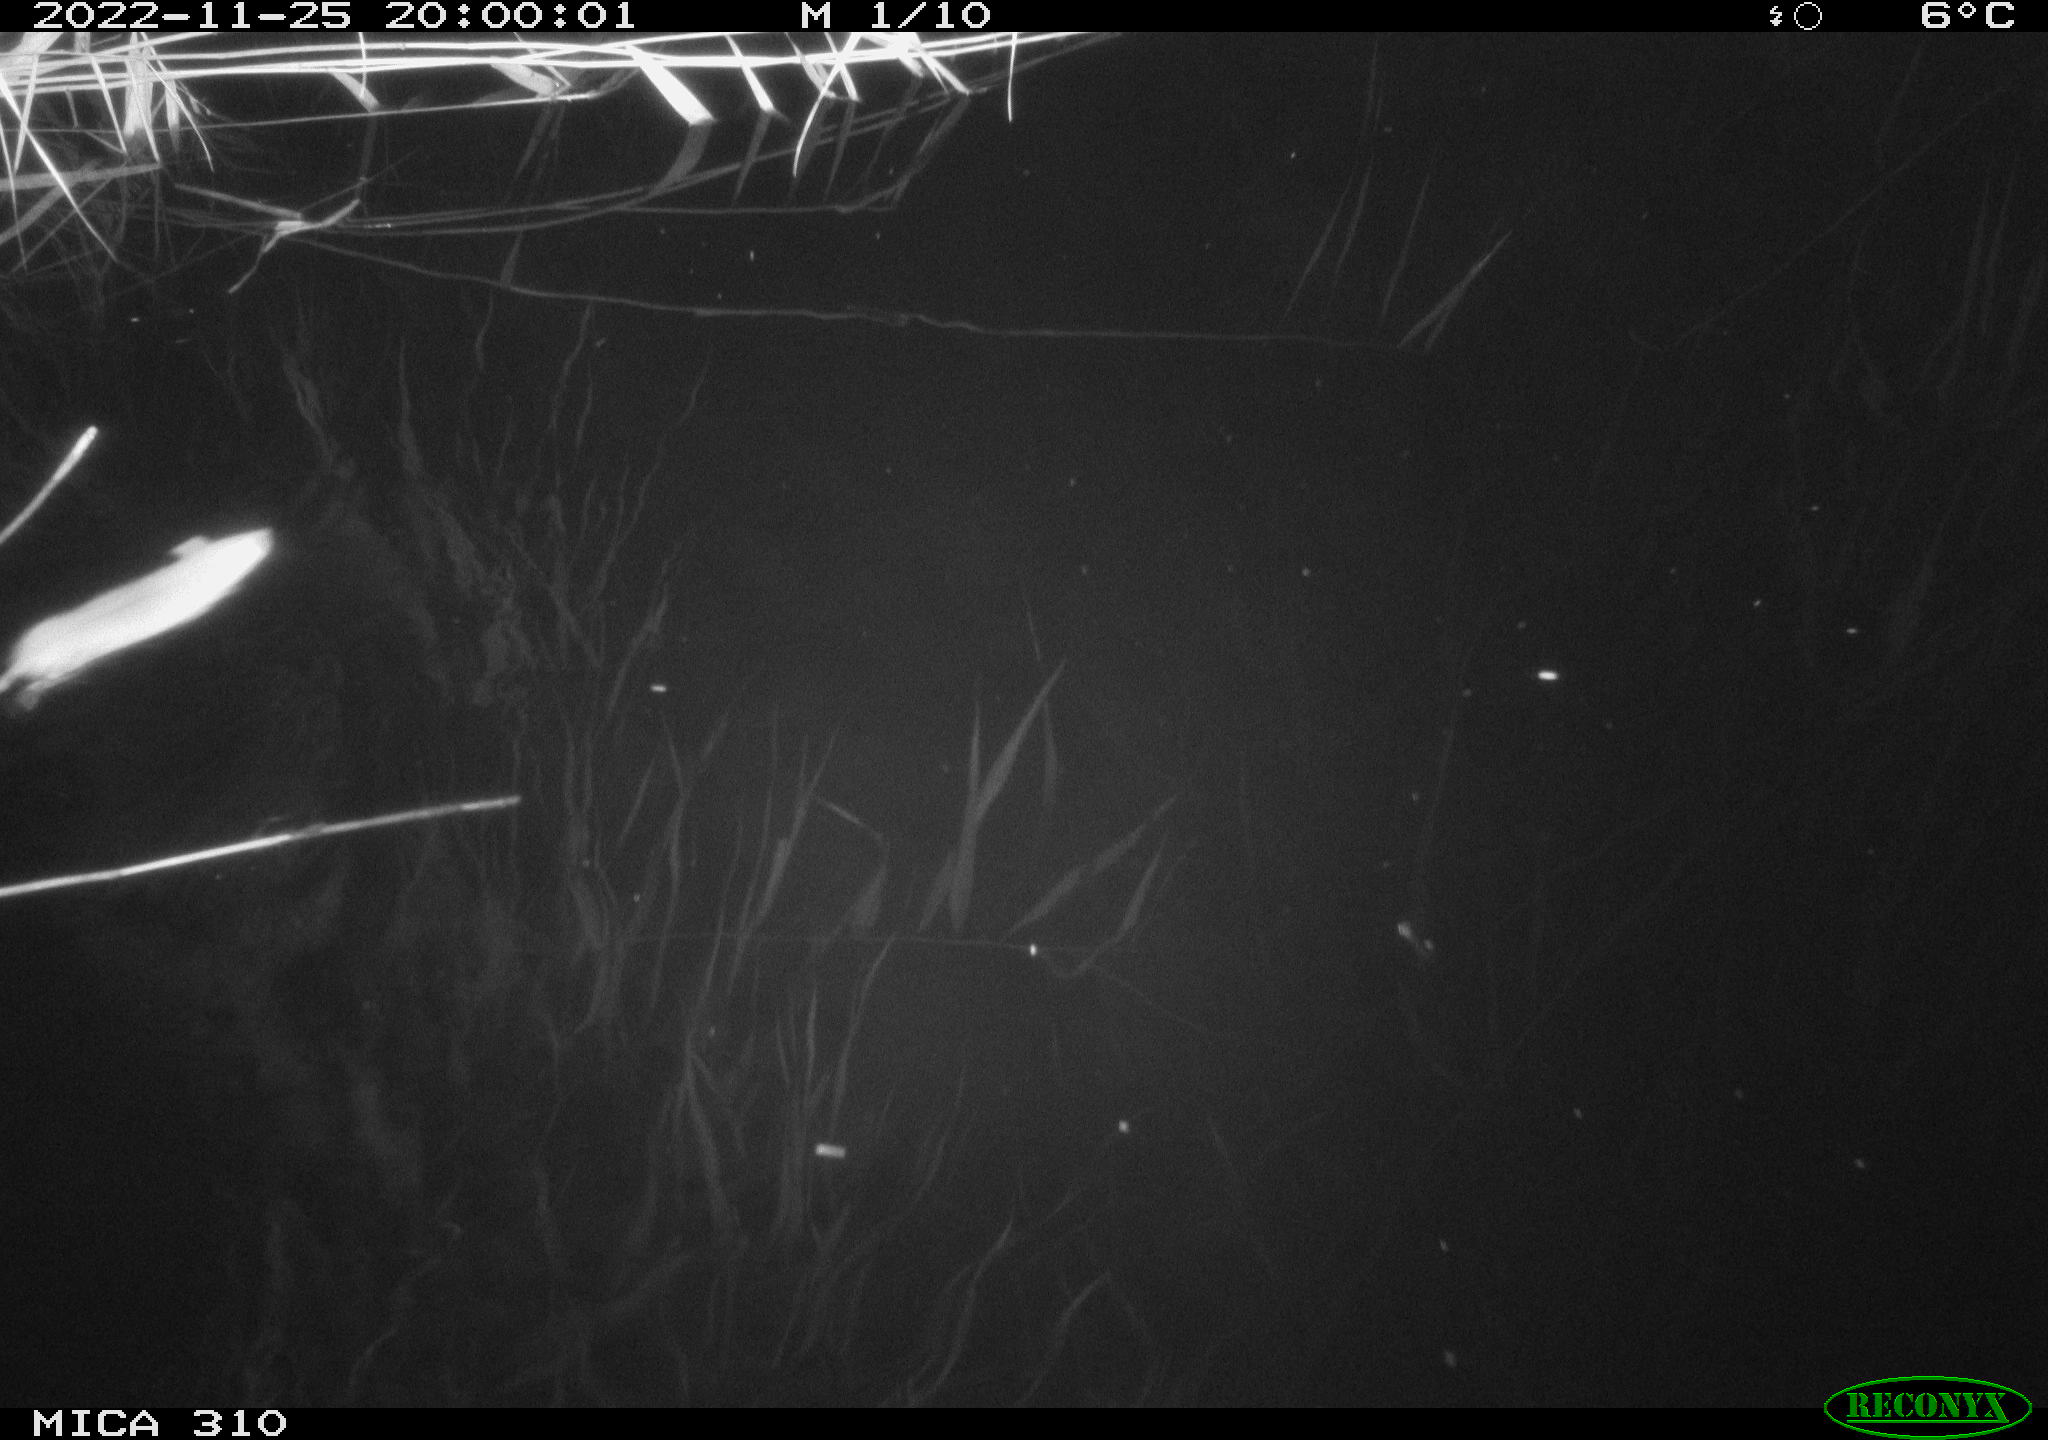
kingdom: Animalia
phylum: Chordata
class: Mammalia
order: Rodentia
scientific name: Rodentia
